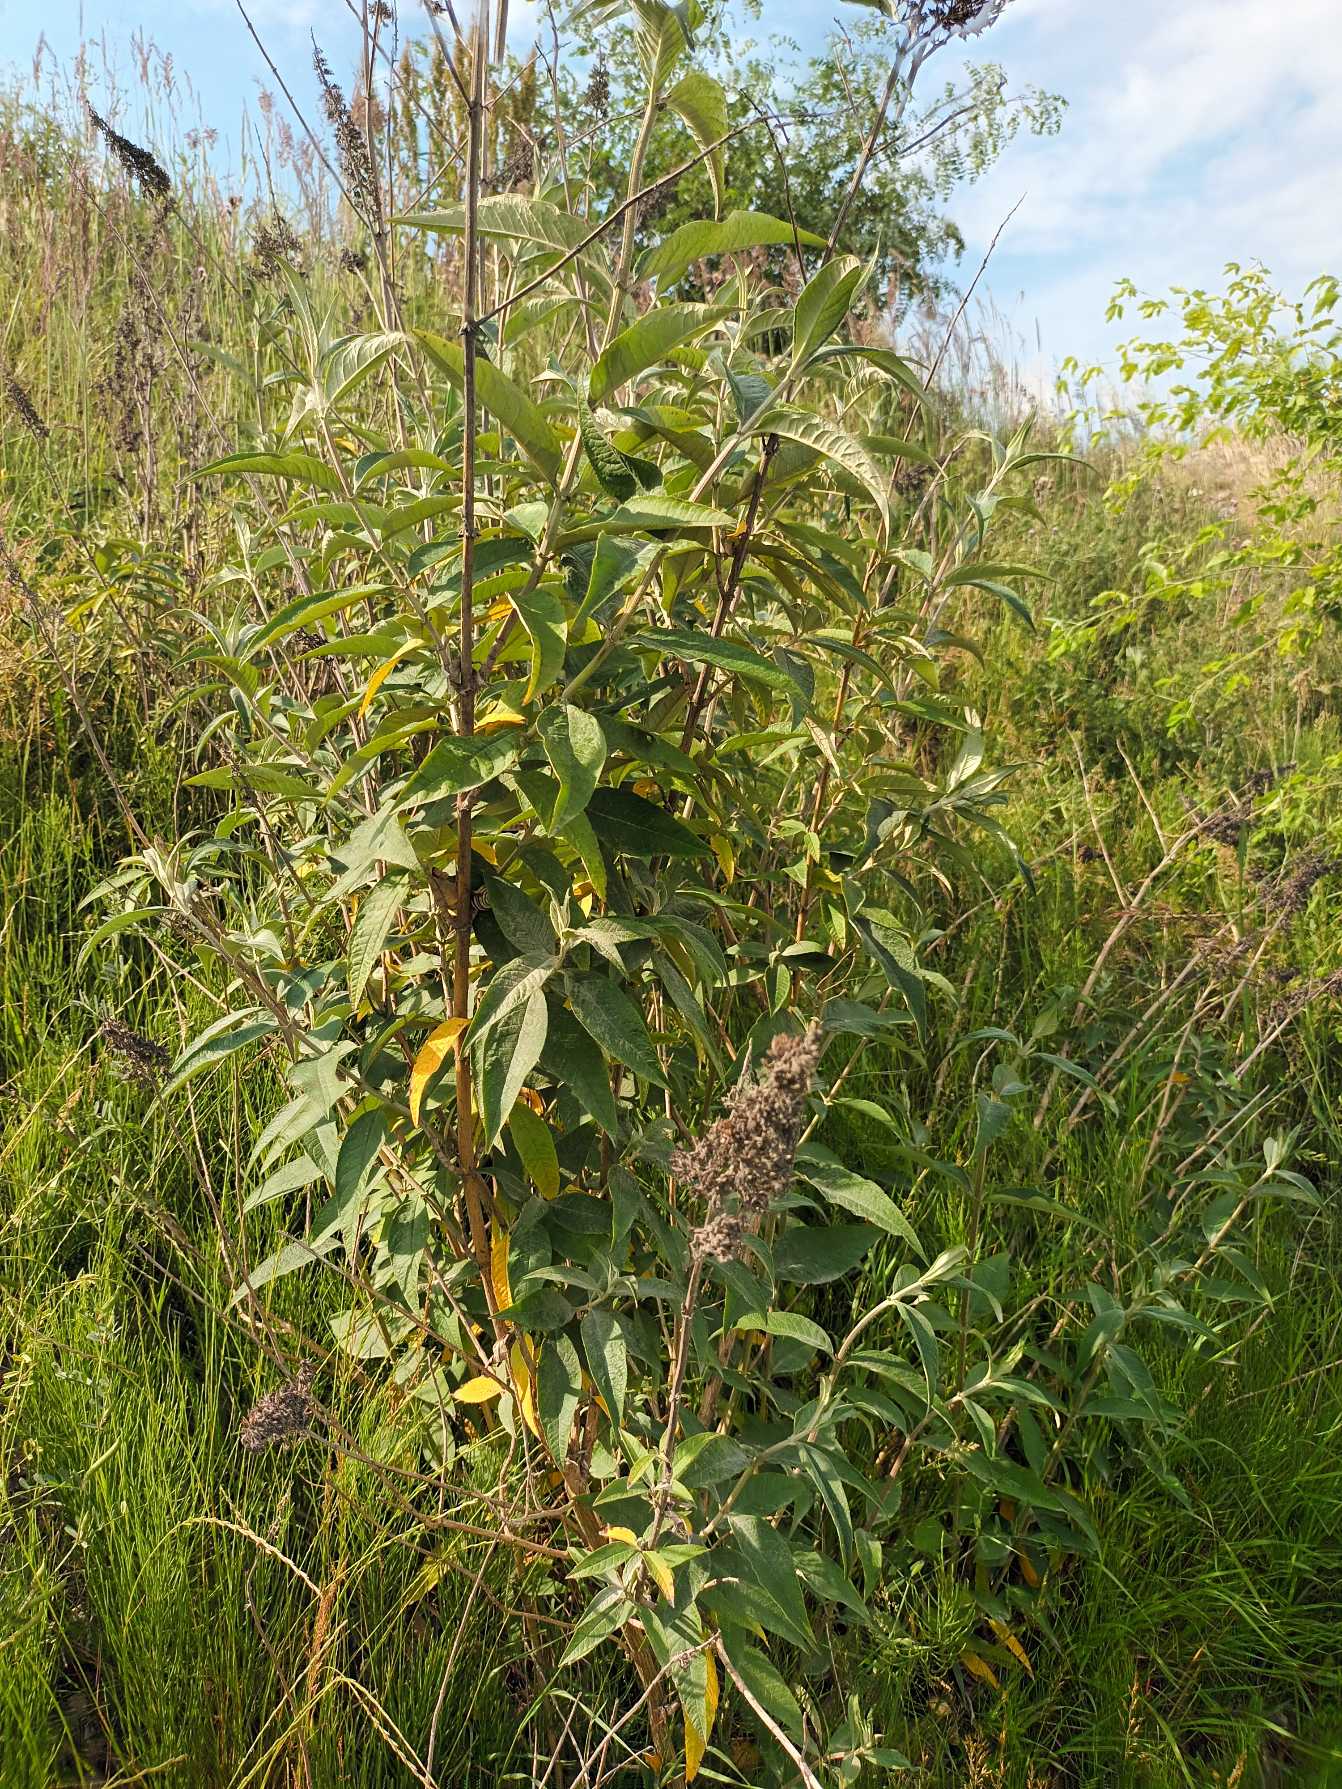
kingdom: Plantae
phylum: Tracheophyta
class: Magnoliopsida
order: Lamiales
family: Scrophulariaceae
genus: Buddleja
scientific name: Buddleja davidii
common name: Sommerfuglebusk
